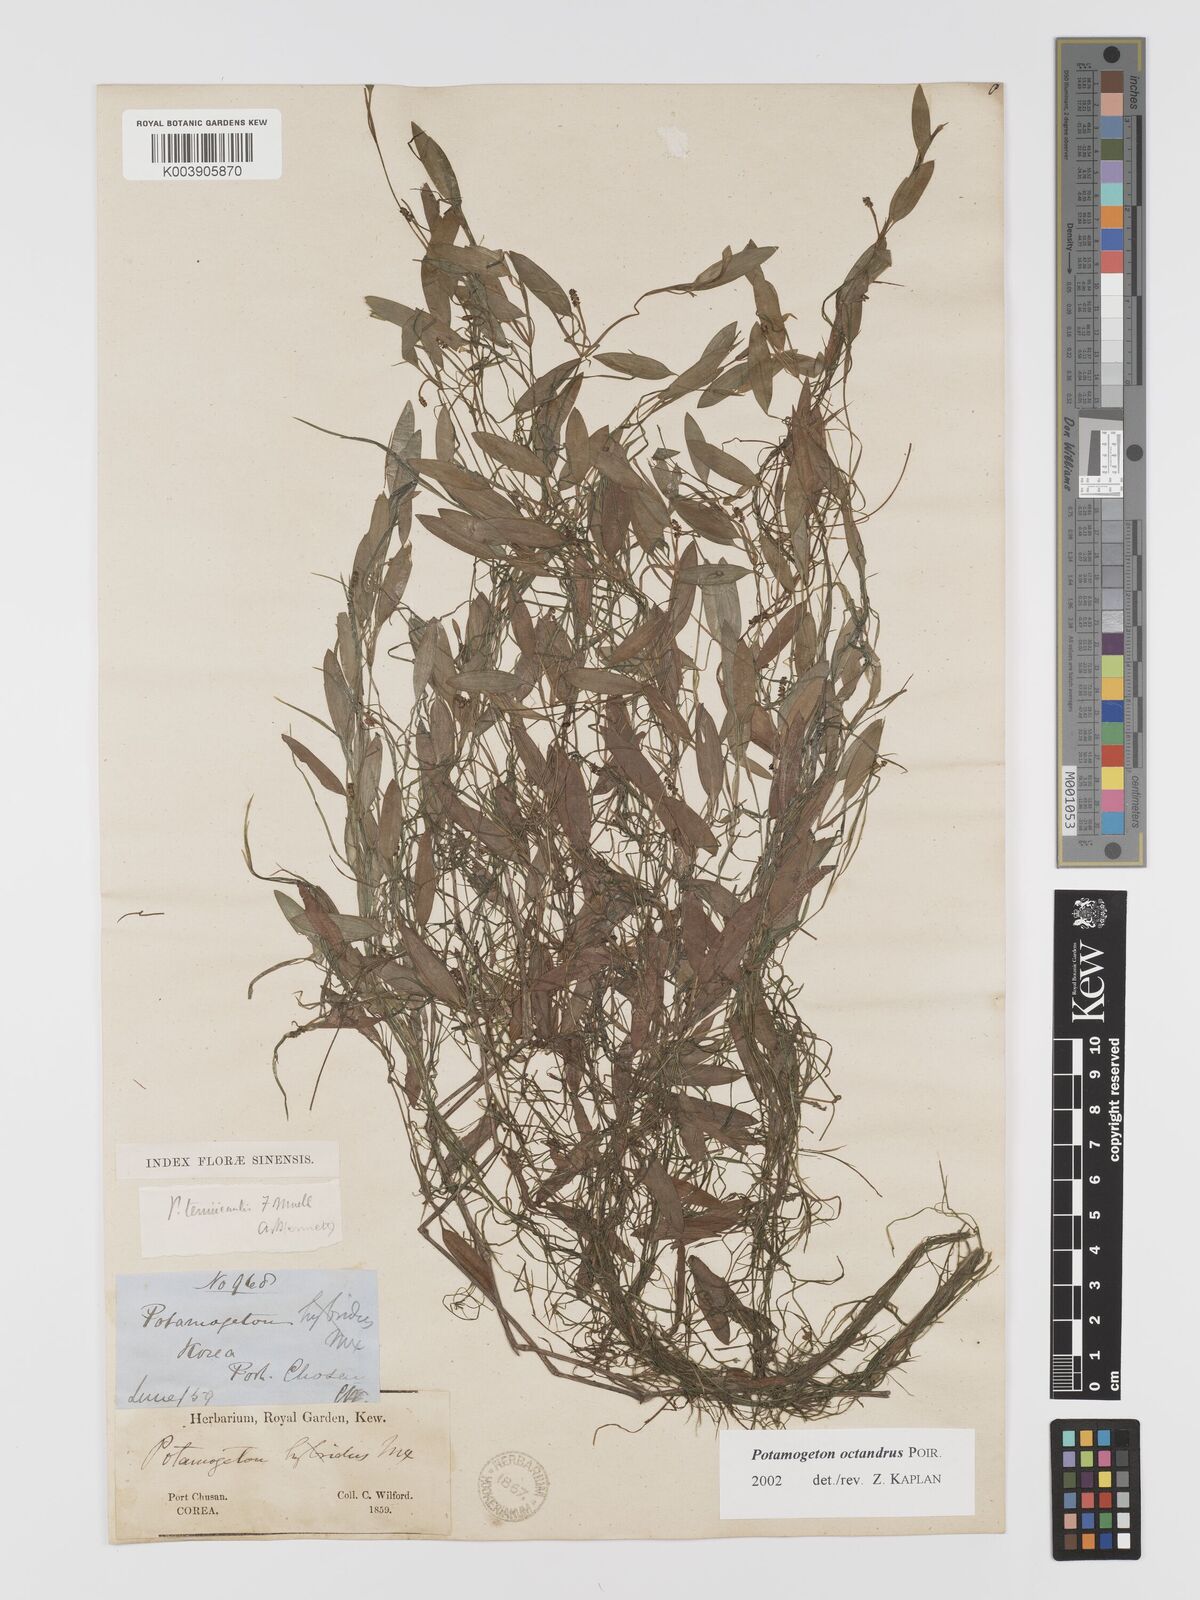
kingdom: Plantae
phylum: Tracheophyta
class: Liliopsida
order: Alismatales
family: Potamogetonaceae
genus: Potamogeton
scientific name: Potamogeton octandrus
